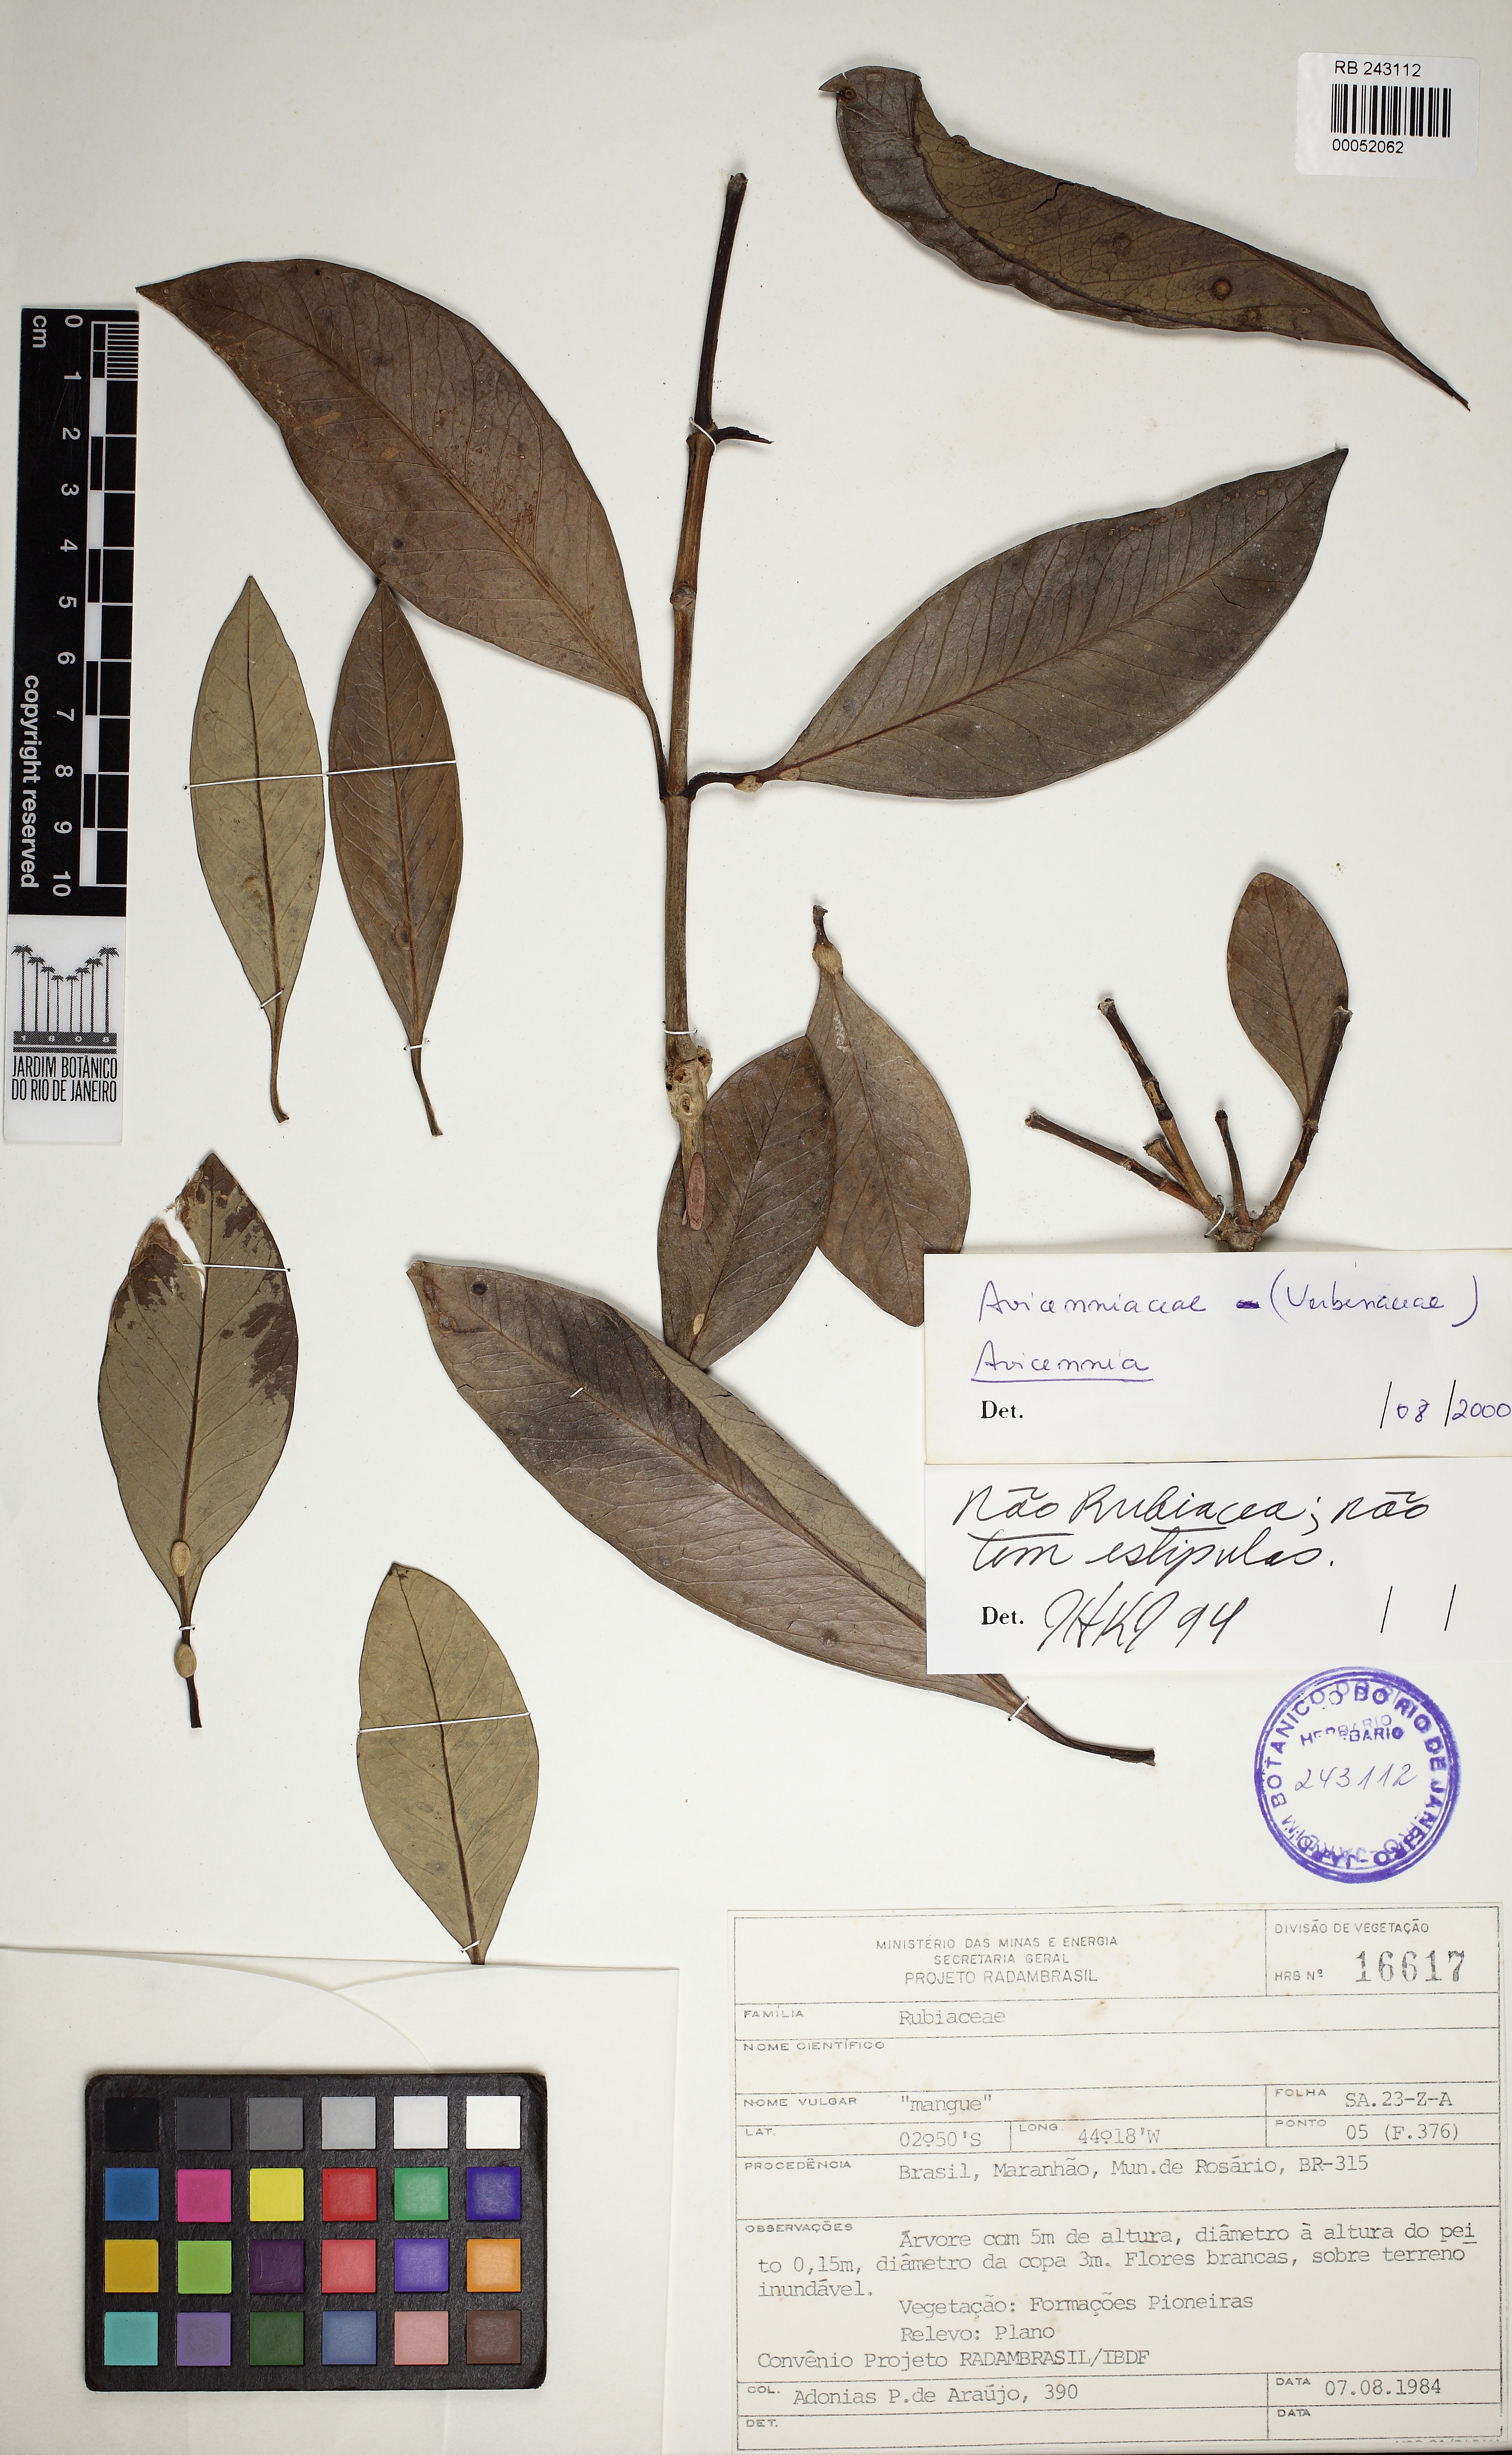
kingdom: Plantae
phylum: Tracheophyta
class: Magnoliopsida
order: Lamiales
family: Acanthaceae
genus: Avicennia
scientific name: Avicennia
